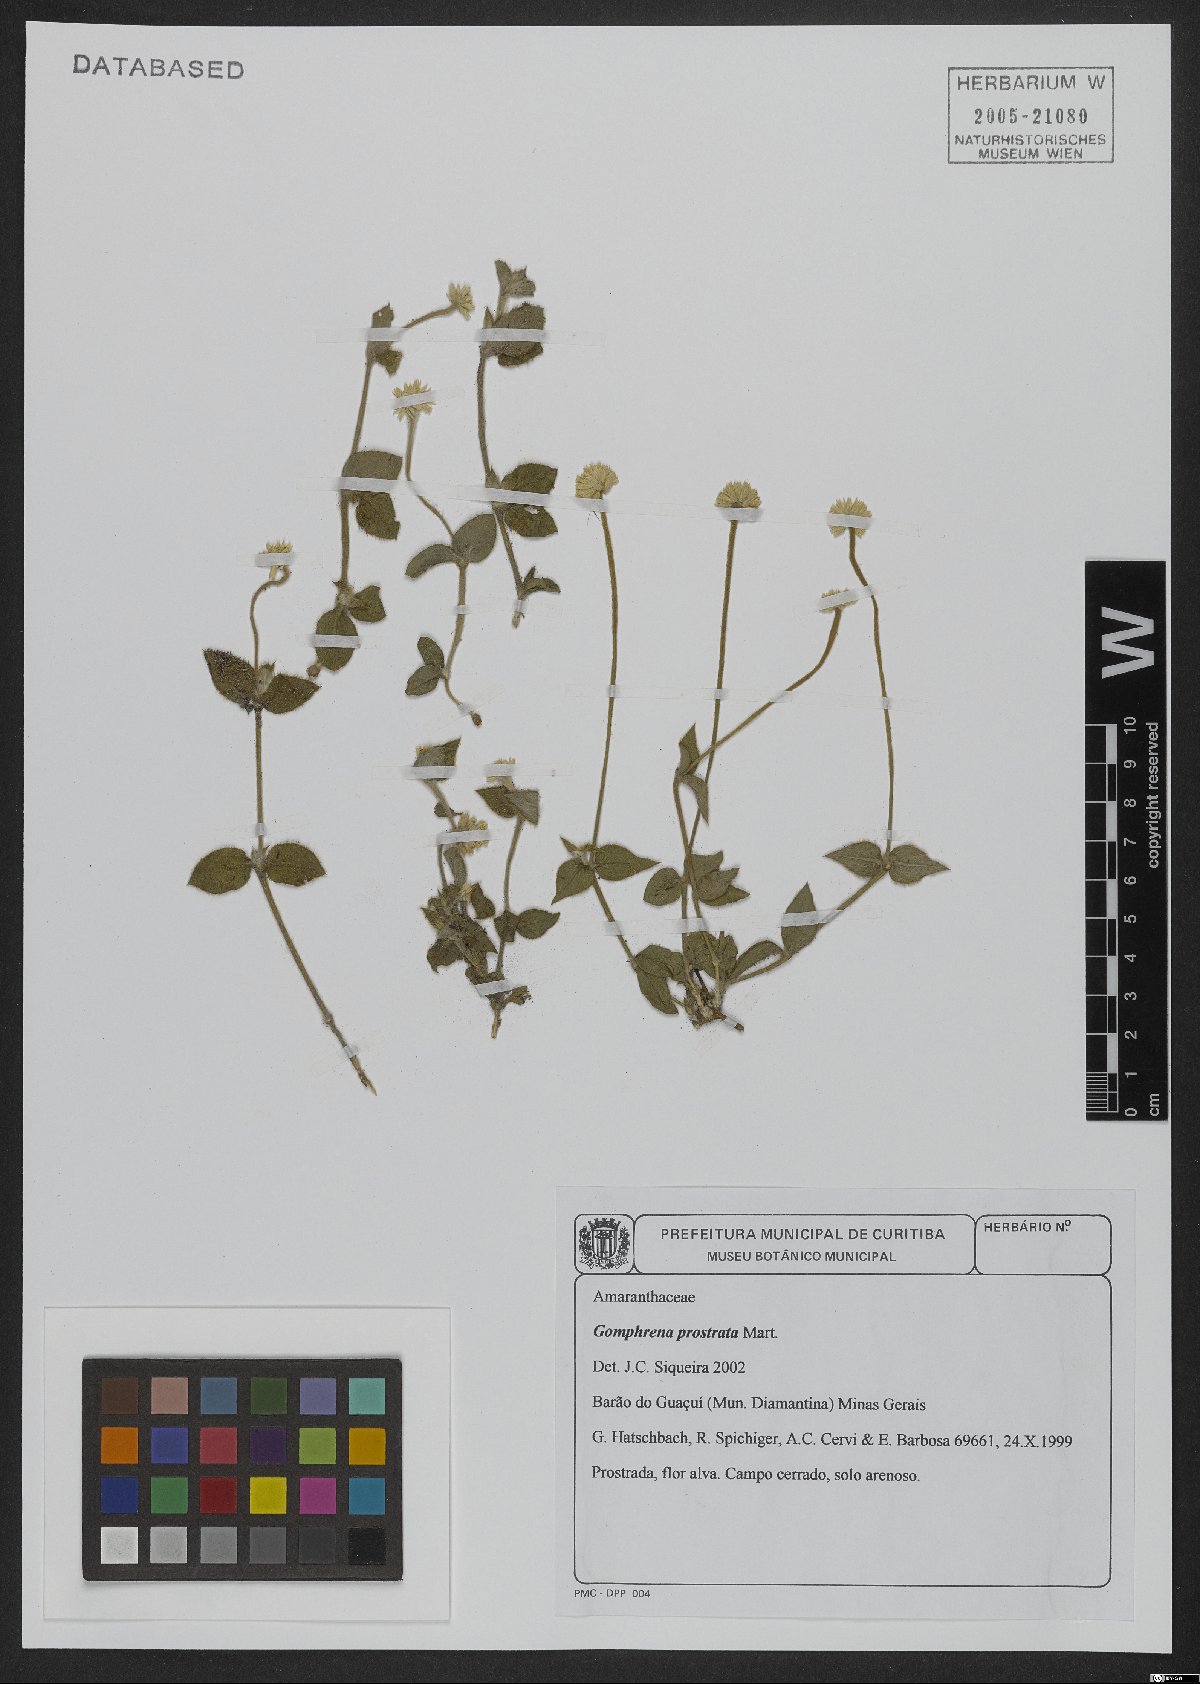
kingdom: Plantae
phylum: Tracheophyta
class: Magnoliopsida
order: Caryophyllales
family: Amaranthaceae
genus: Gomphrena
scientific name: Gomphrena prostrata
